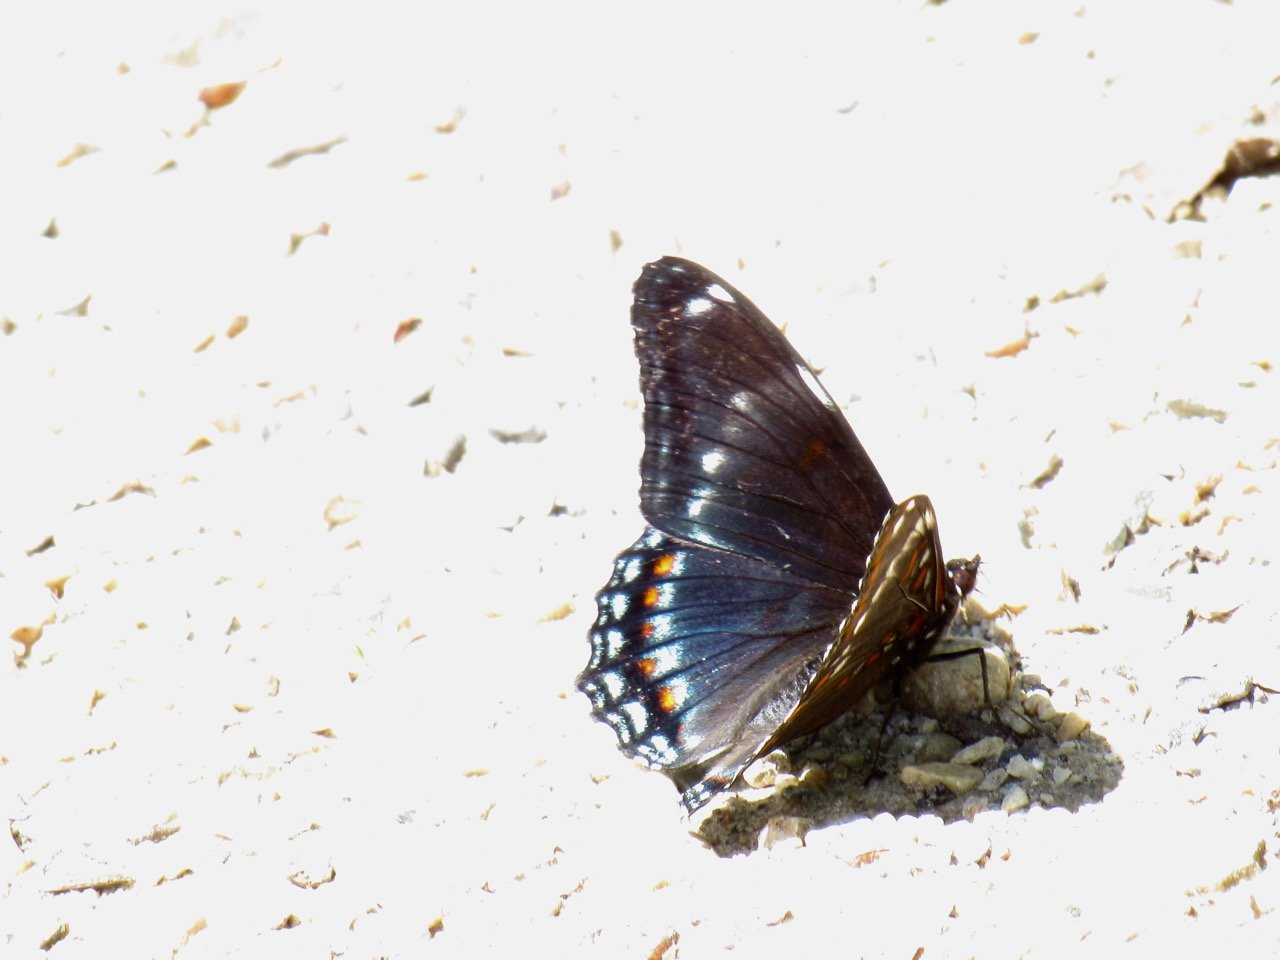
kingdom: Animalia
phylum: Arthropoda
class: Insecta
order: Lepidoptera
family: Nymphalidae
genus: Limenitis
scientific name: Limenitis
